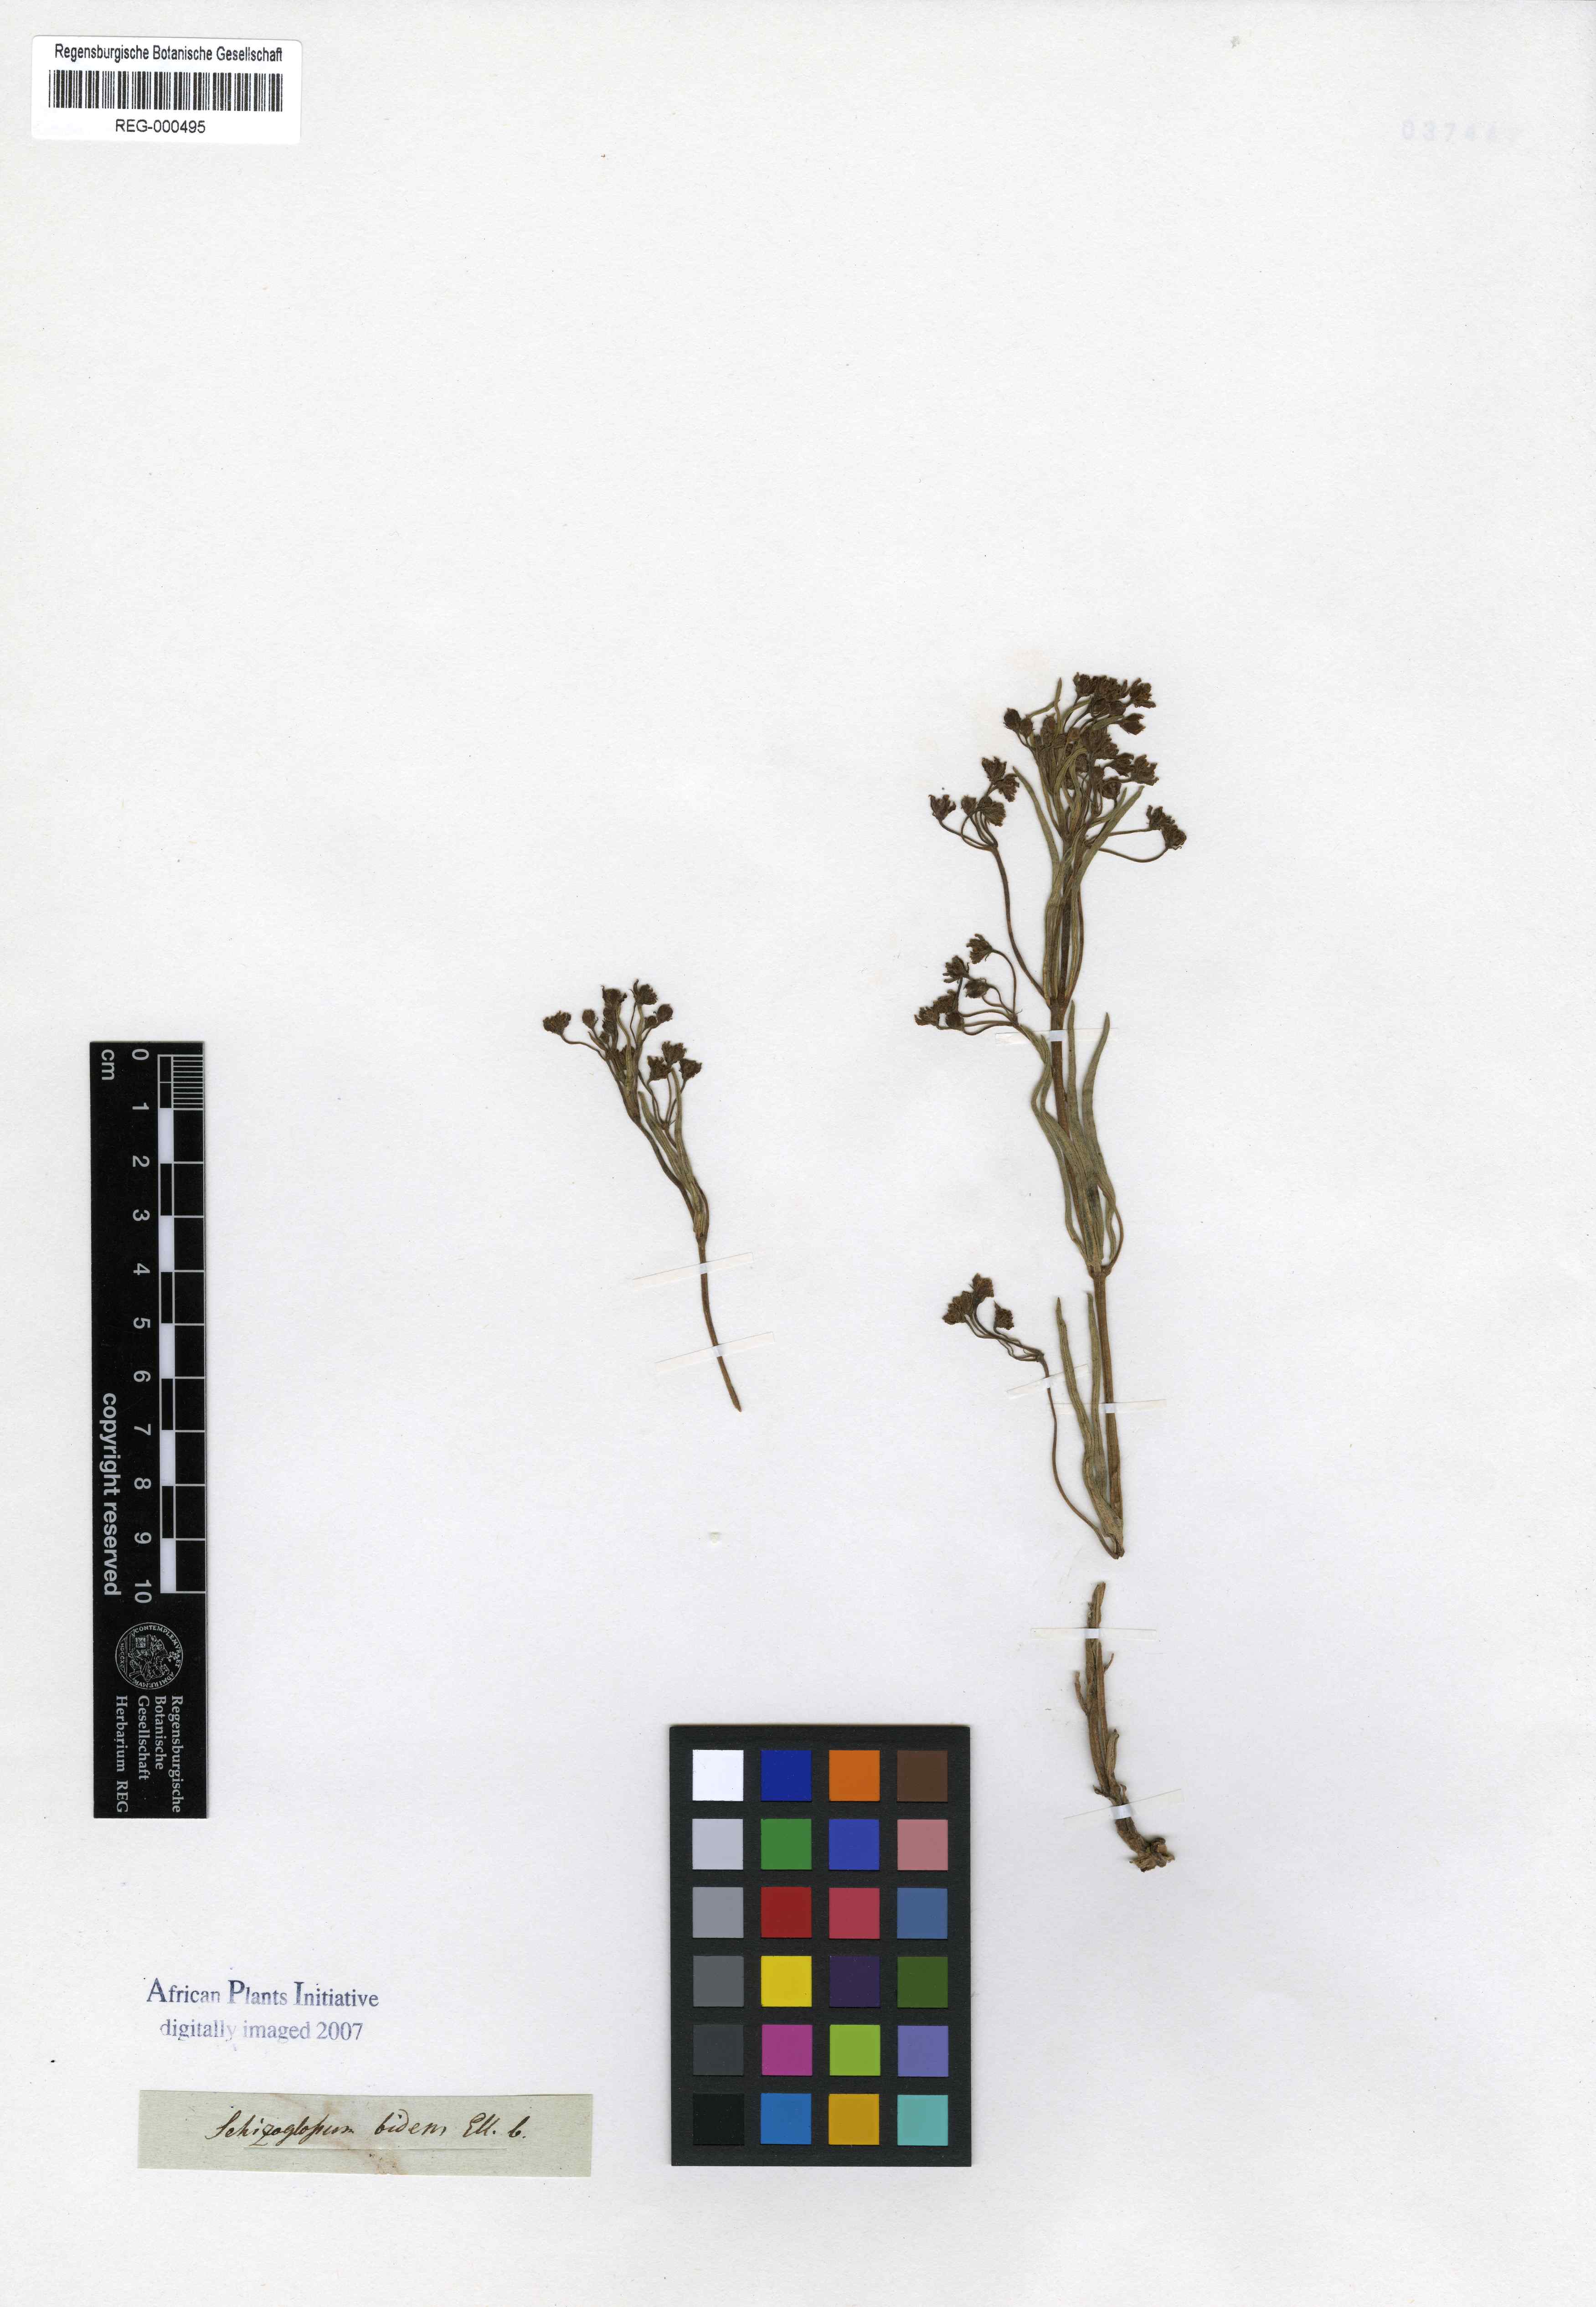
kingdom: Plantae
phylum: Tracheophyta
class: Magnoliopsida
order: Gentianales
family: Apocynaceae
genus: Schizoglossum
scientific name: Schizoglossum bidens
